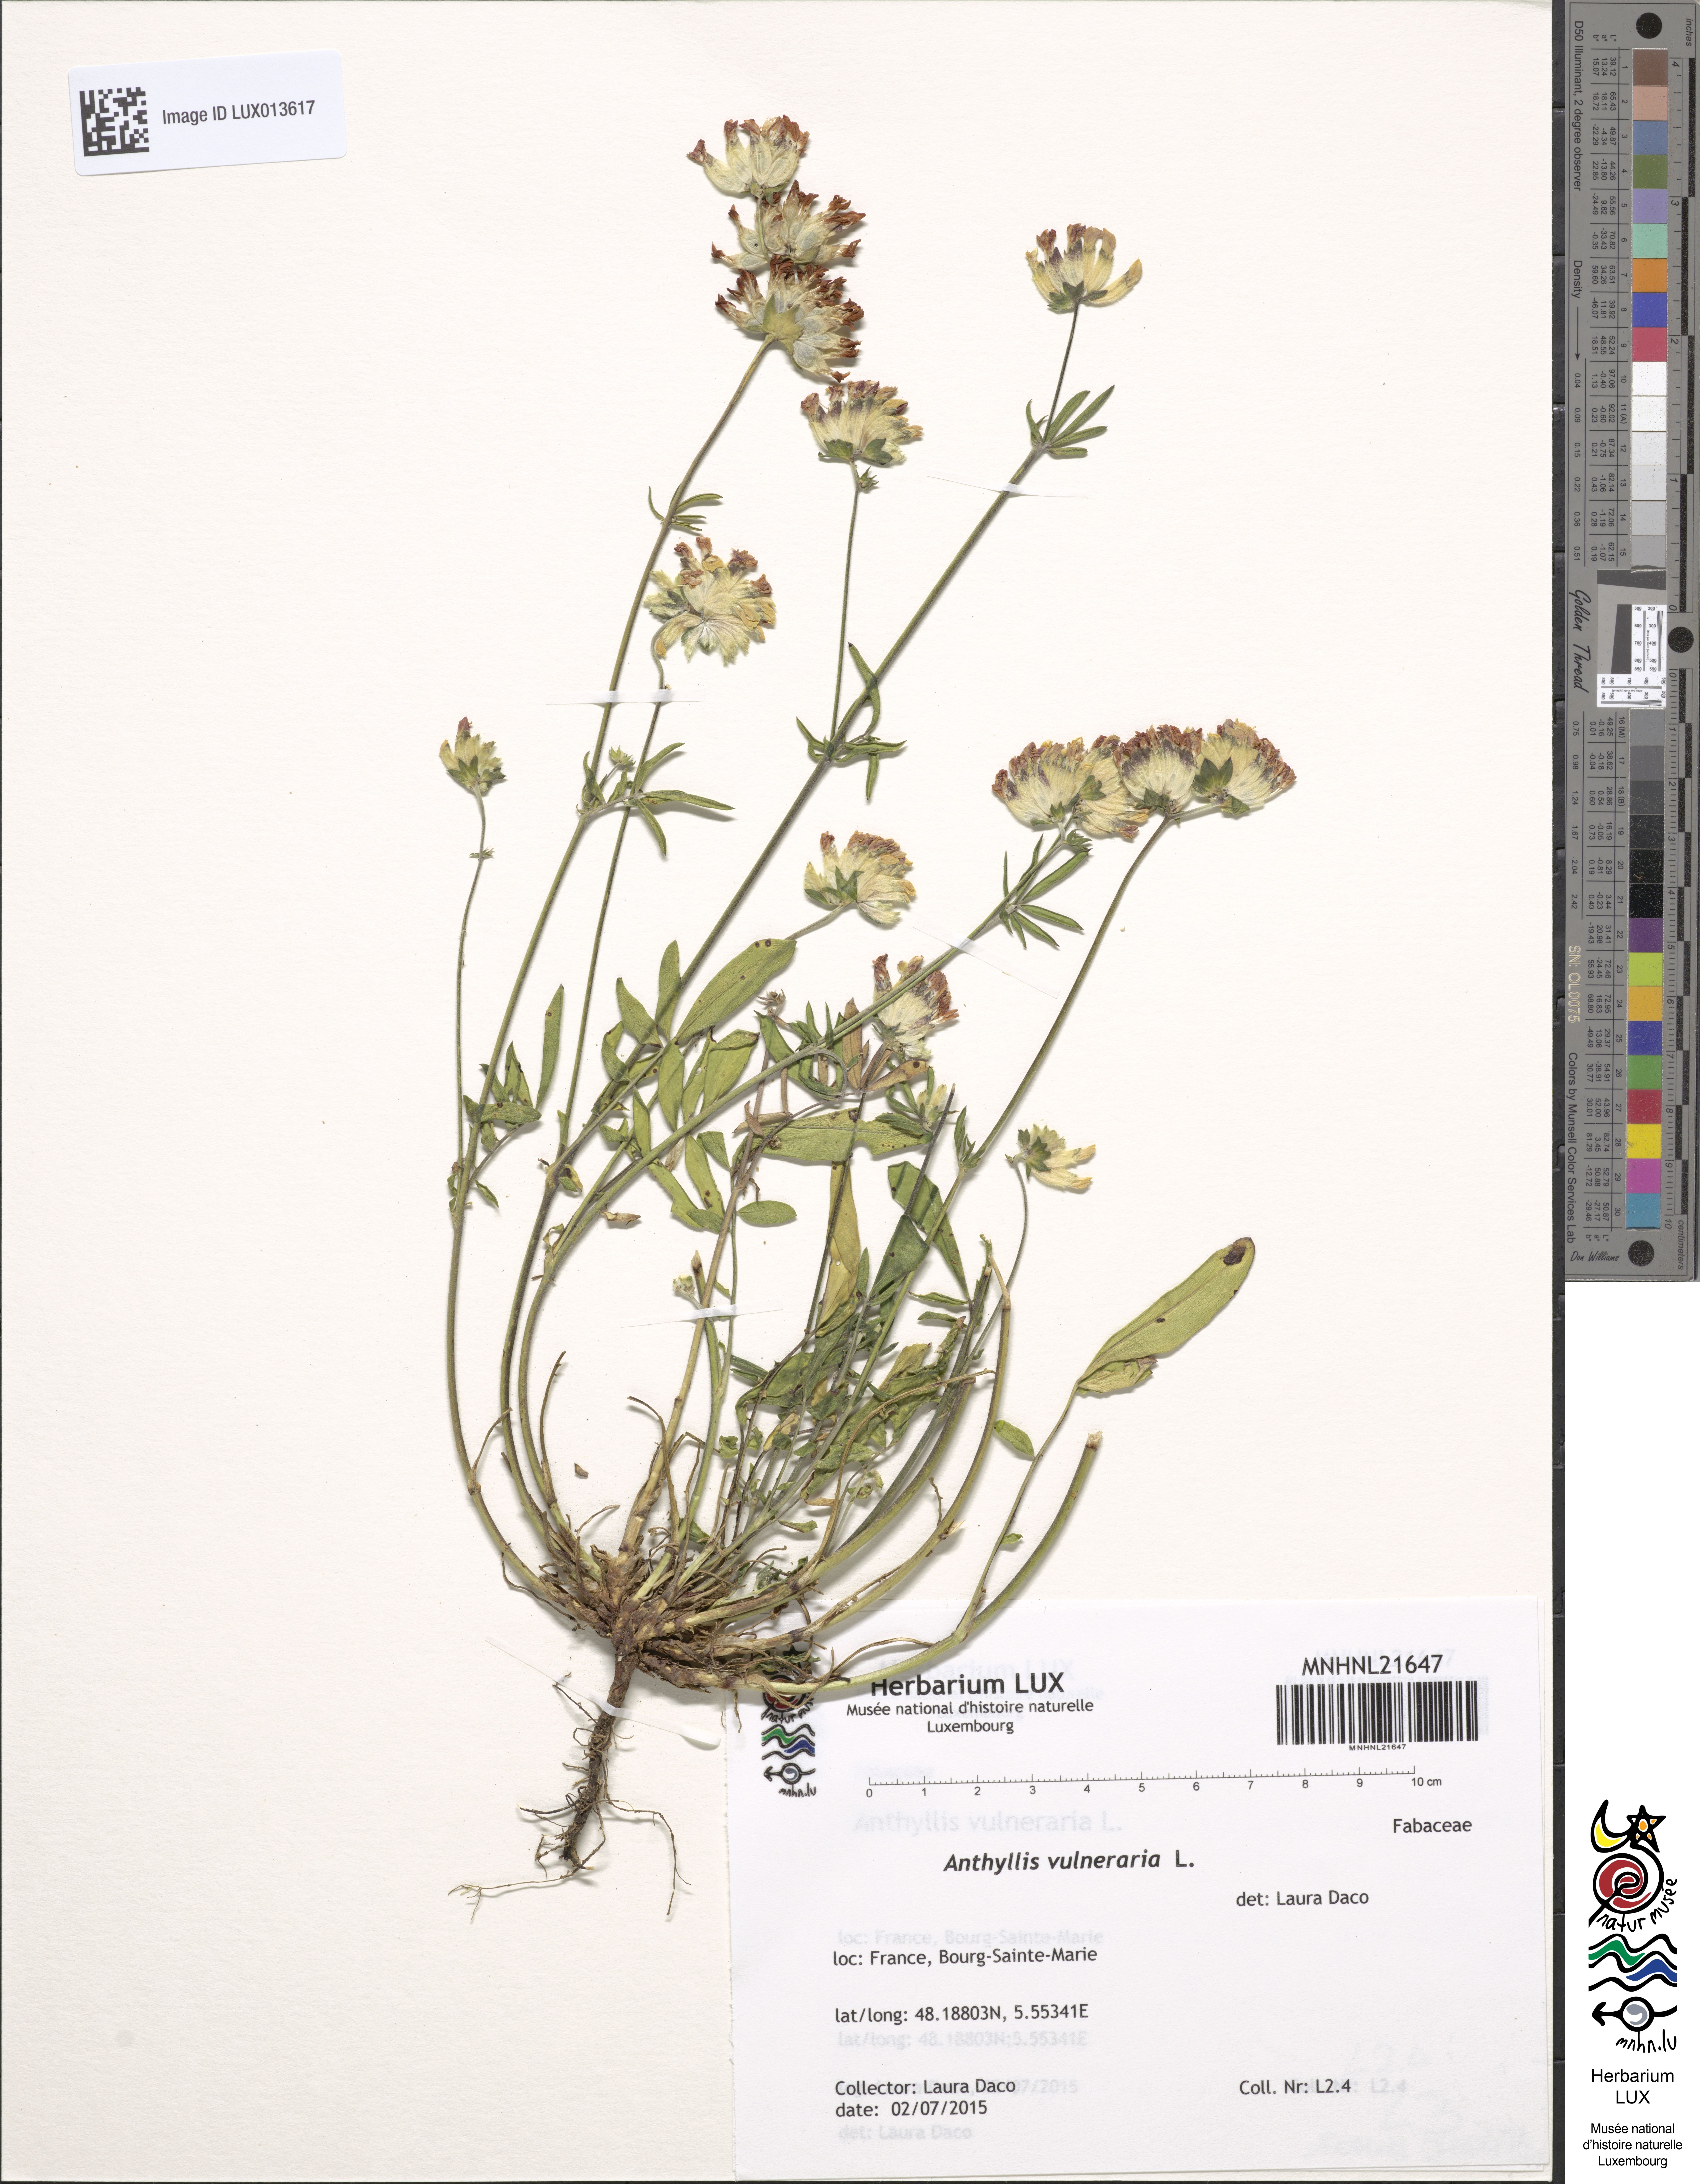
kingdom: Plantae
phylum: Tracheophyta
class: Magnoliopsida
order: Fabales
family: Fabaceae
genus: Anthyllis
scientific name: Anthyllis vulneraria
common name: Kidney vetch
